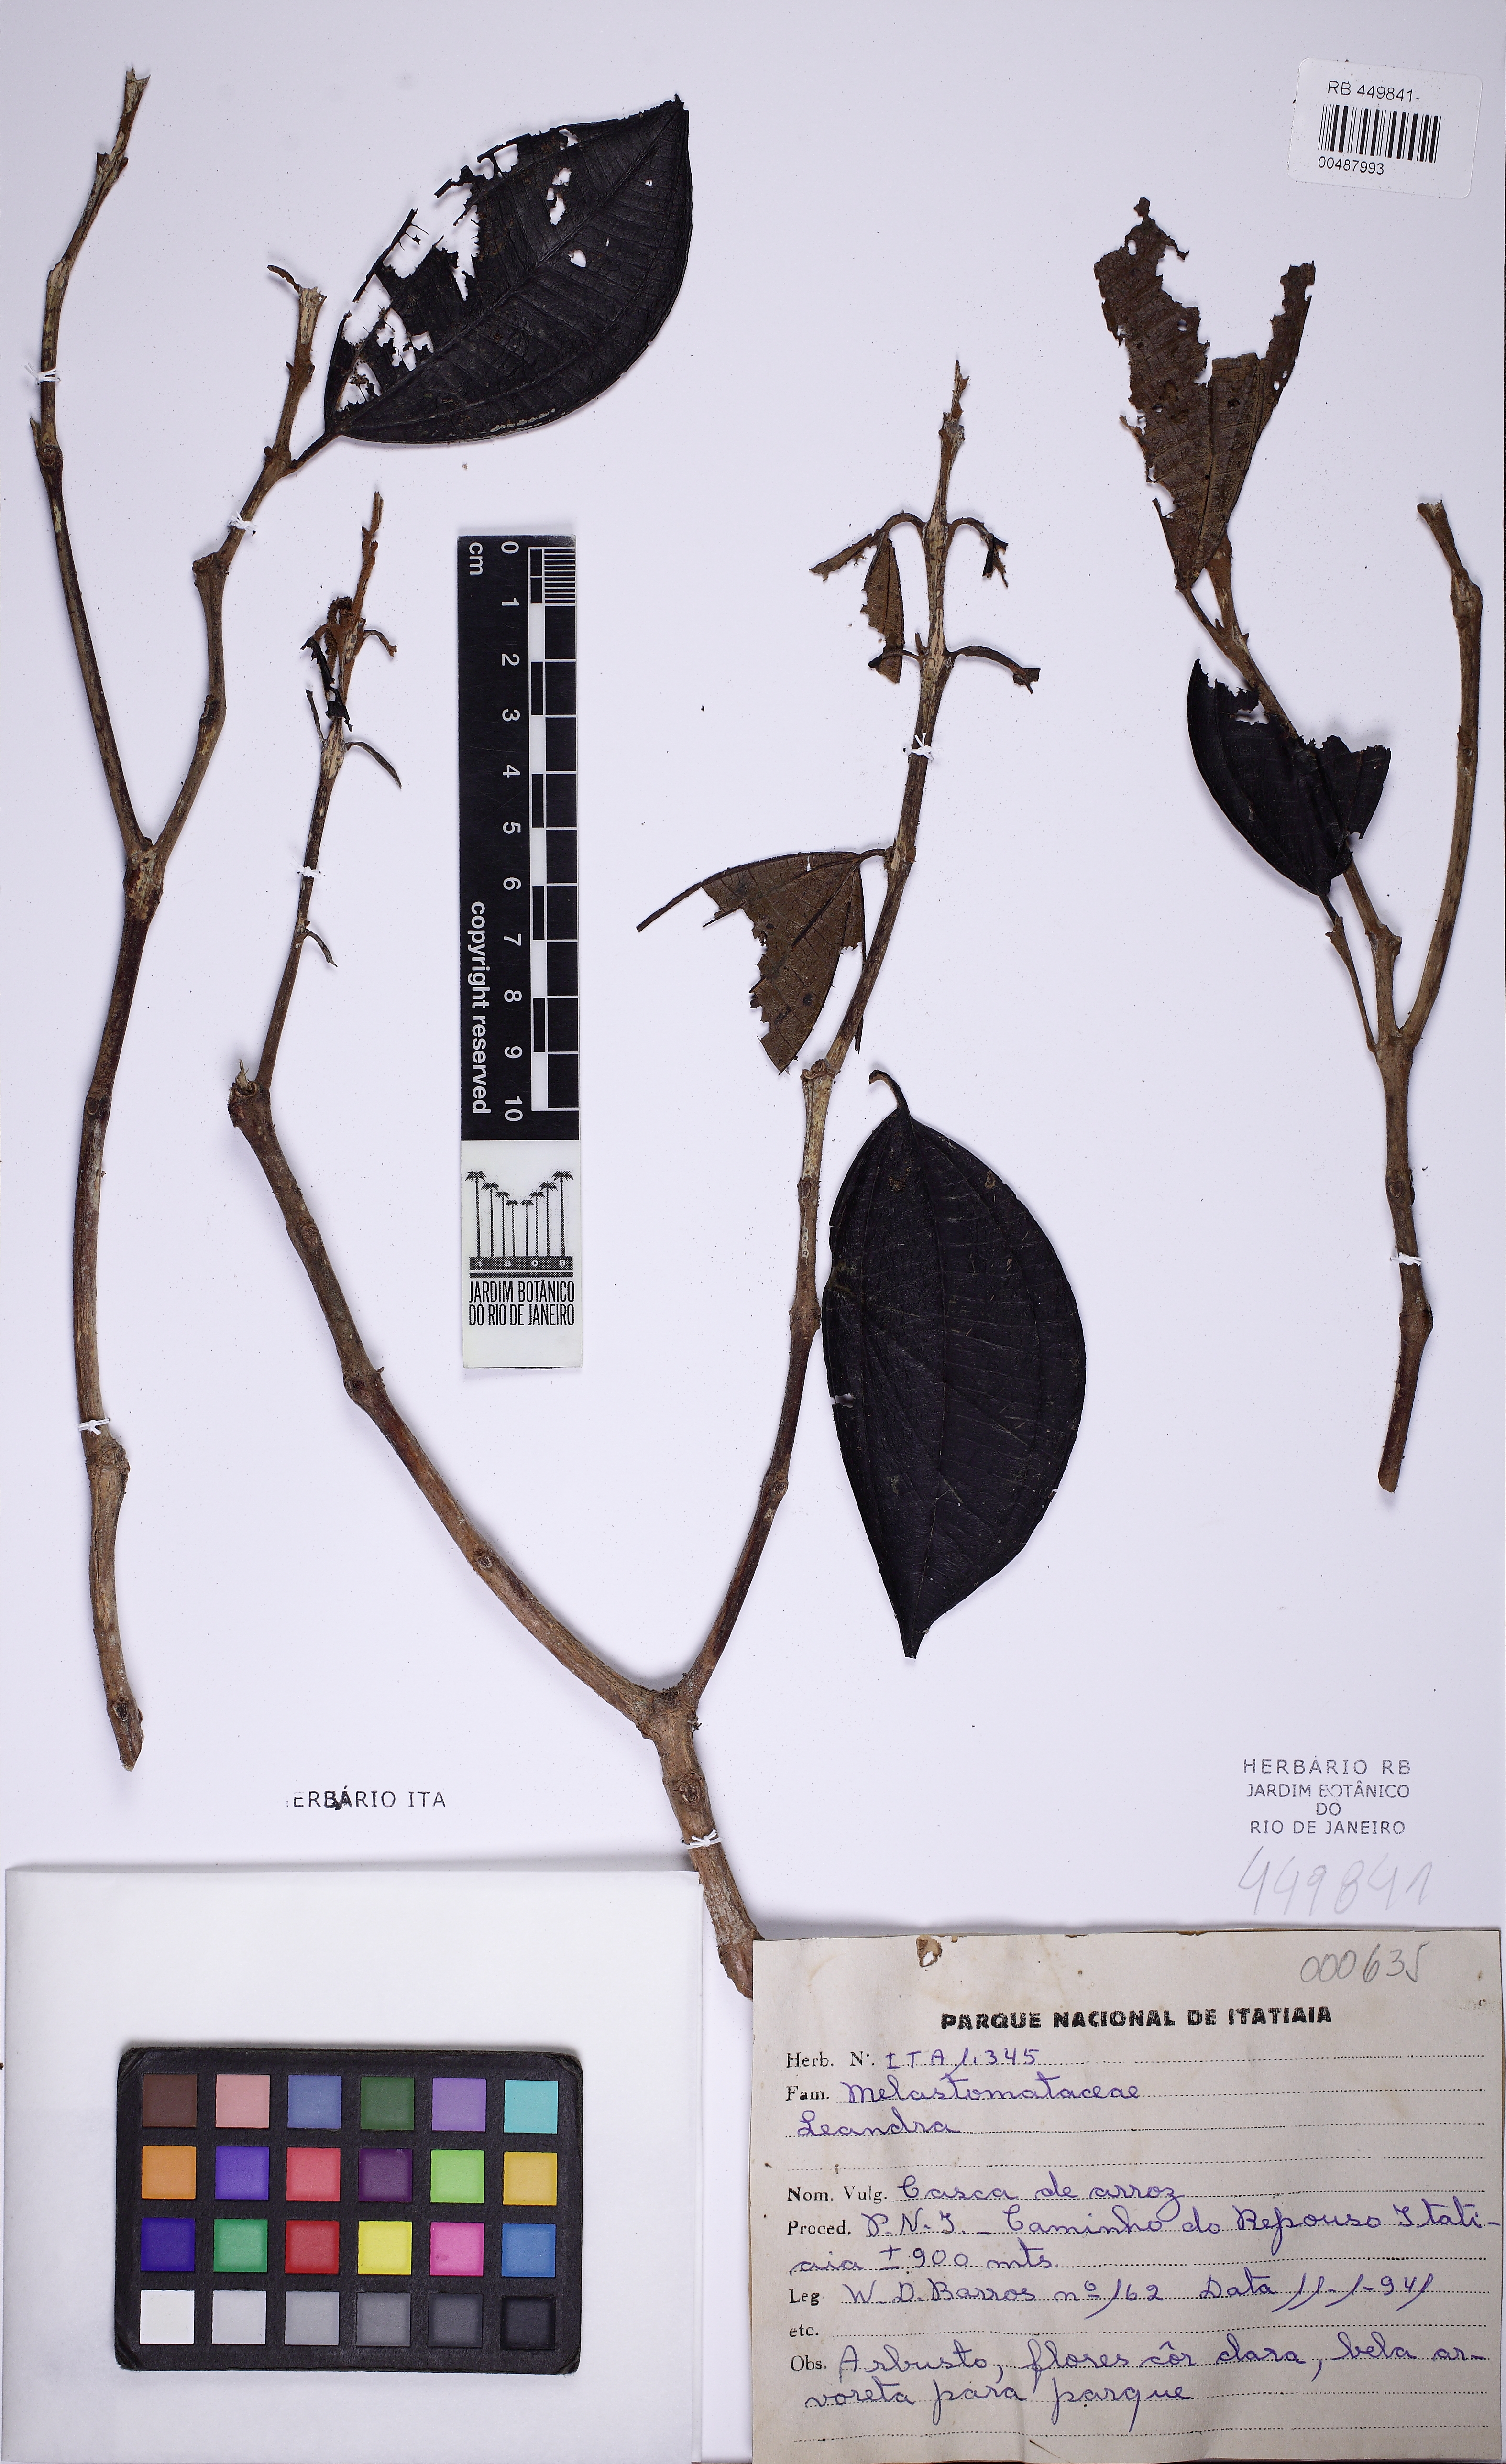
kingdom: Plantae
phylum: Tracheophyta
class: Magnoliopsida
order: Myrtales
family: Melastomataceae
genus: Miconia
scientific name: Miconia
